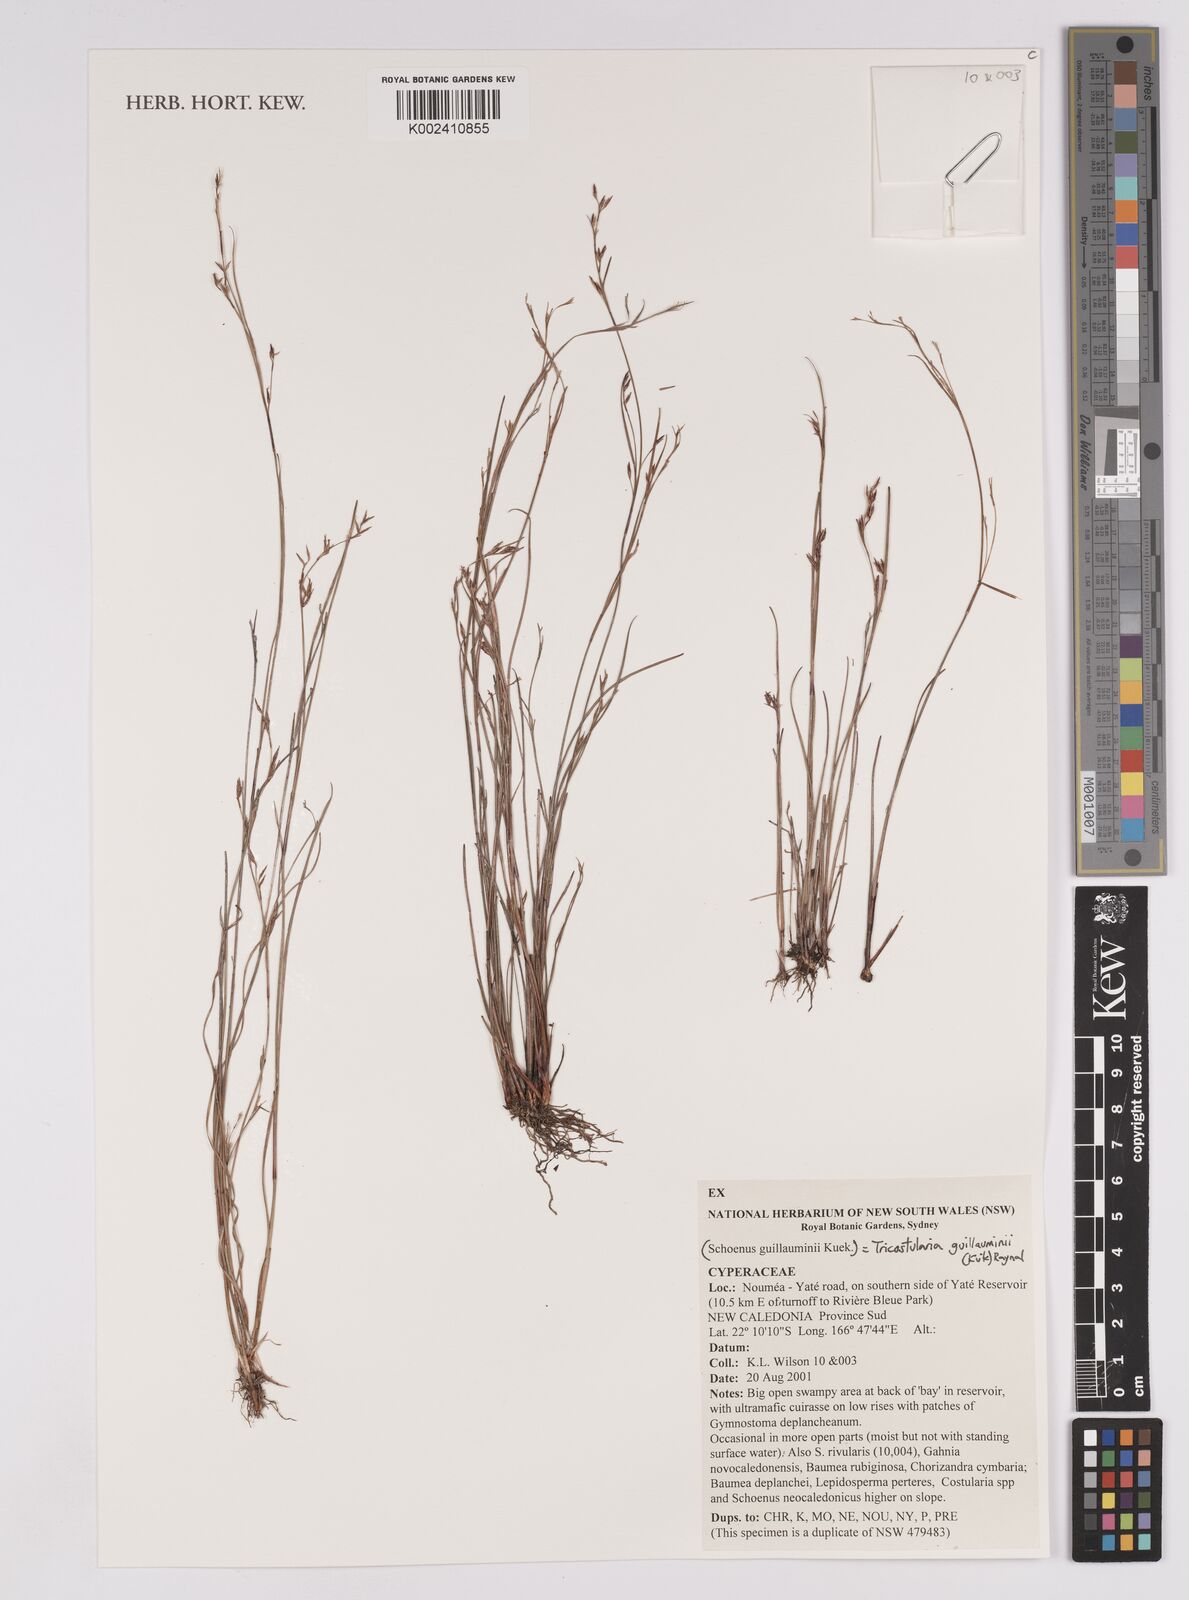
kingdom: Plantae
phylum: Tracheophyta
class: Liliopsida
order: Poales
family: Cyperaceae
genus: Anthelepis
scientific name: Anthelepis guillauminii
